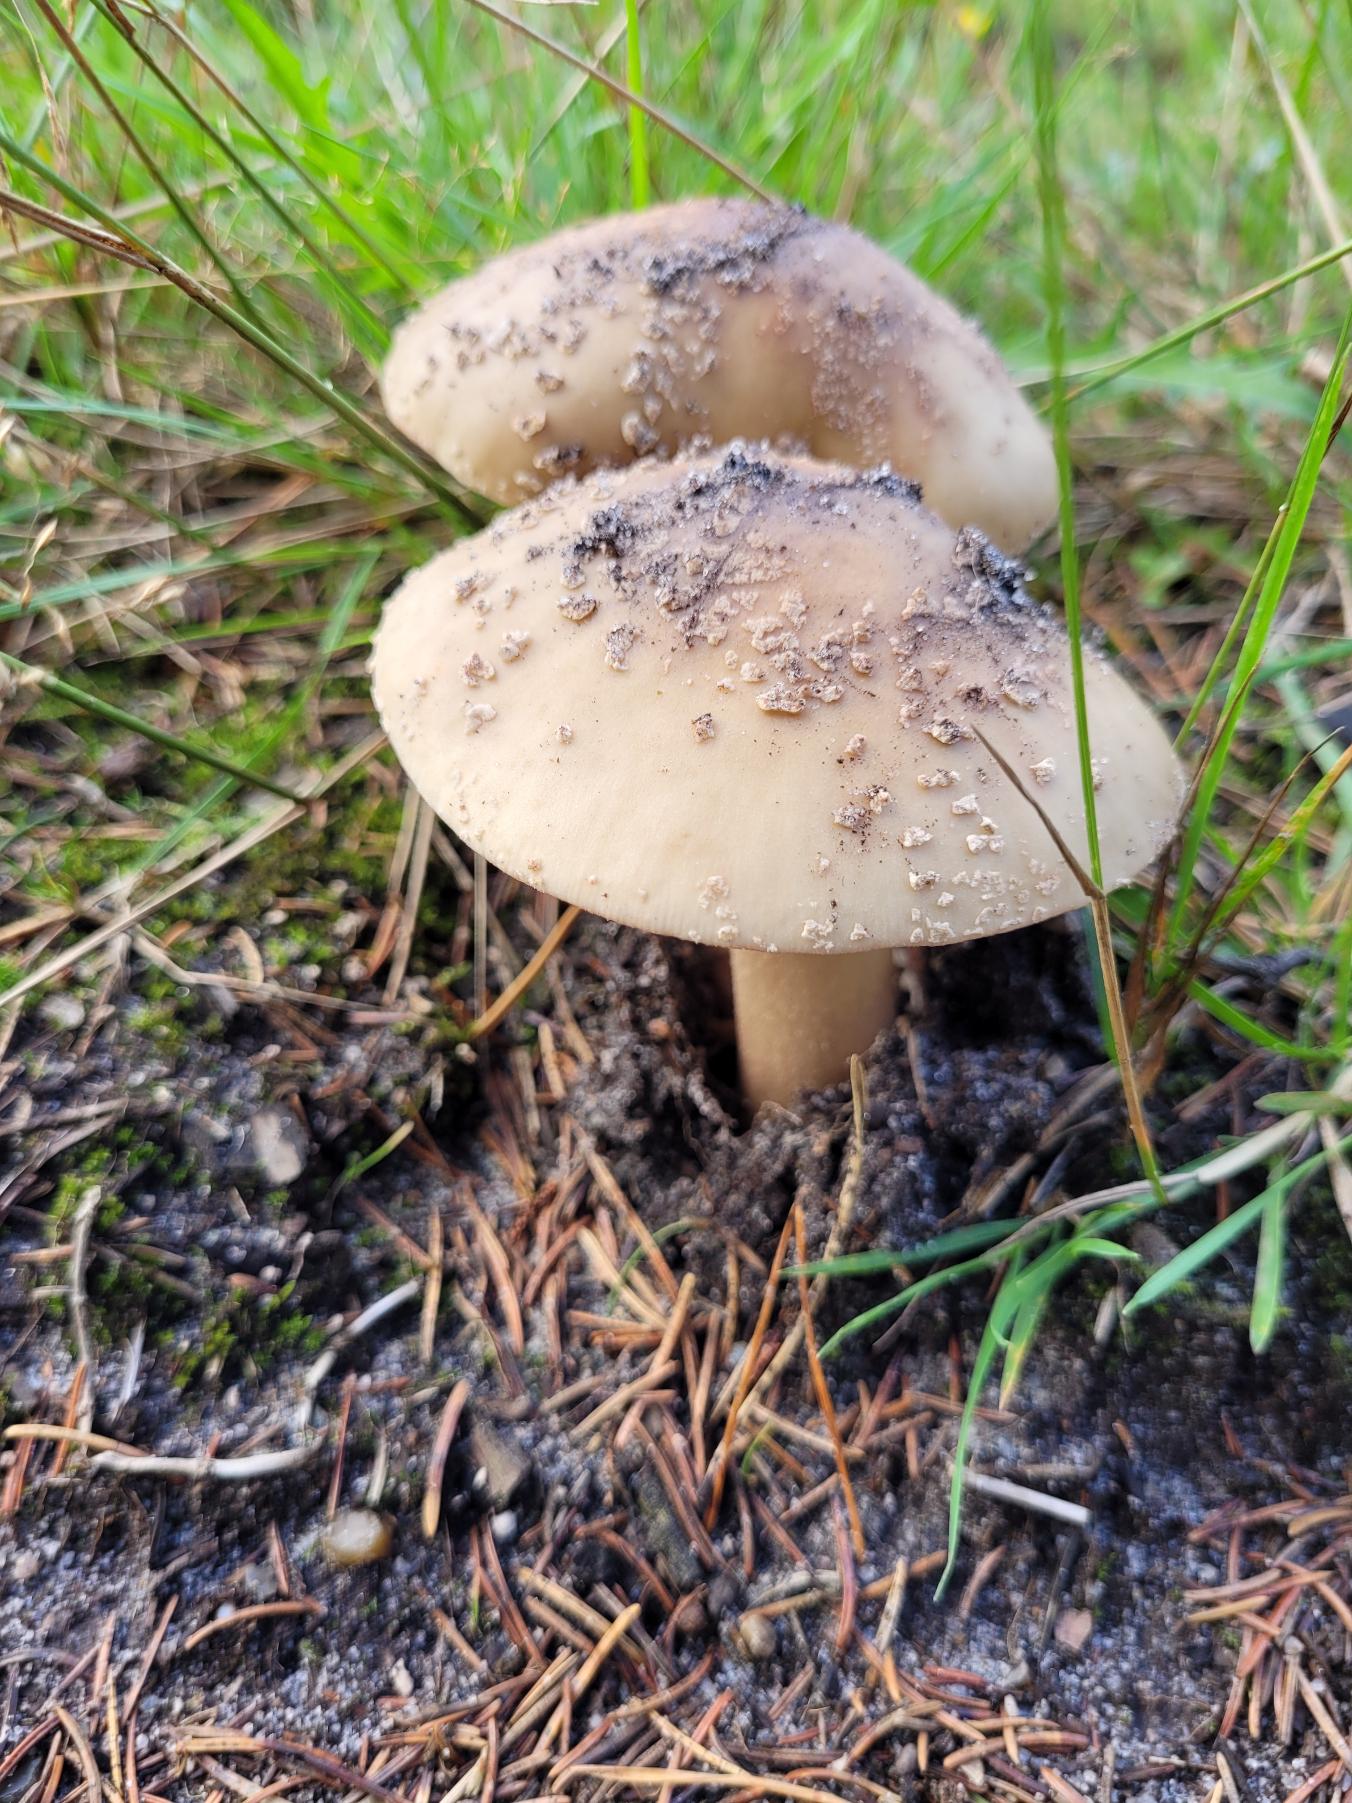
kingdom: Fungi
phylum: Basidiomycota
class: Agaricomycetes
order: Agaricales
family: Amanitaceae
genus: Amanita
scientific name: Amanita rubescens
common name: Rødmende fluesvamp
